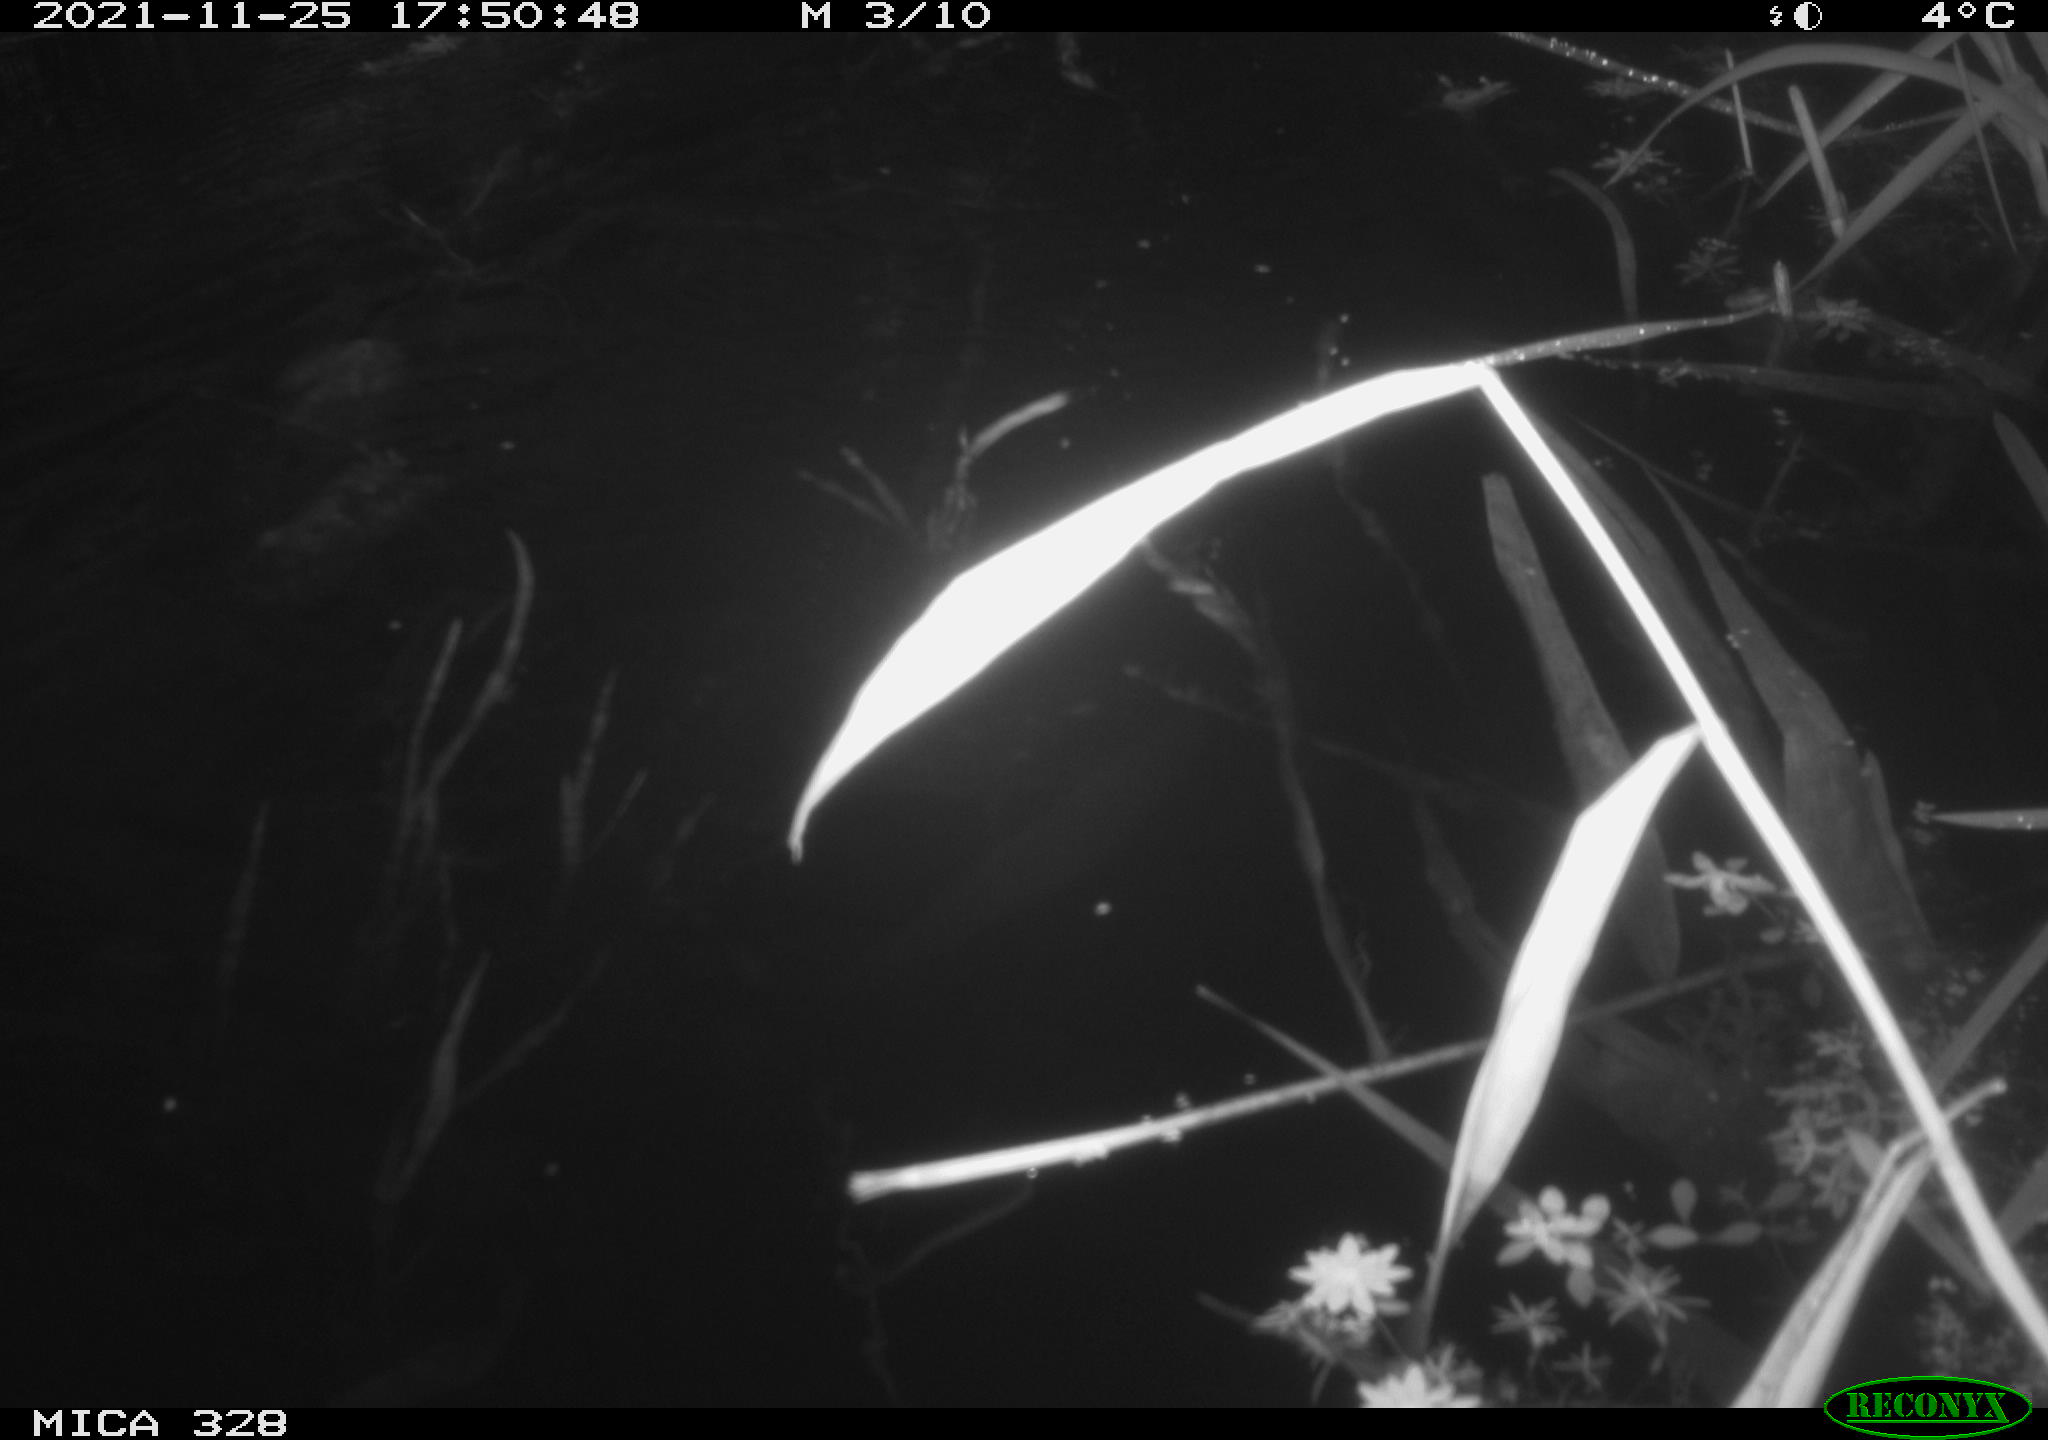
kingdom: Animalia
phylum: Chordata
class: Mammalia
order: Rodentia
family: Cricetidae
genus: Ondatra
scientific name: Ondatra zibethicus
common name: Muskrat
